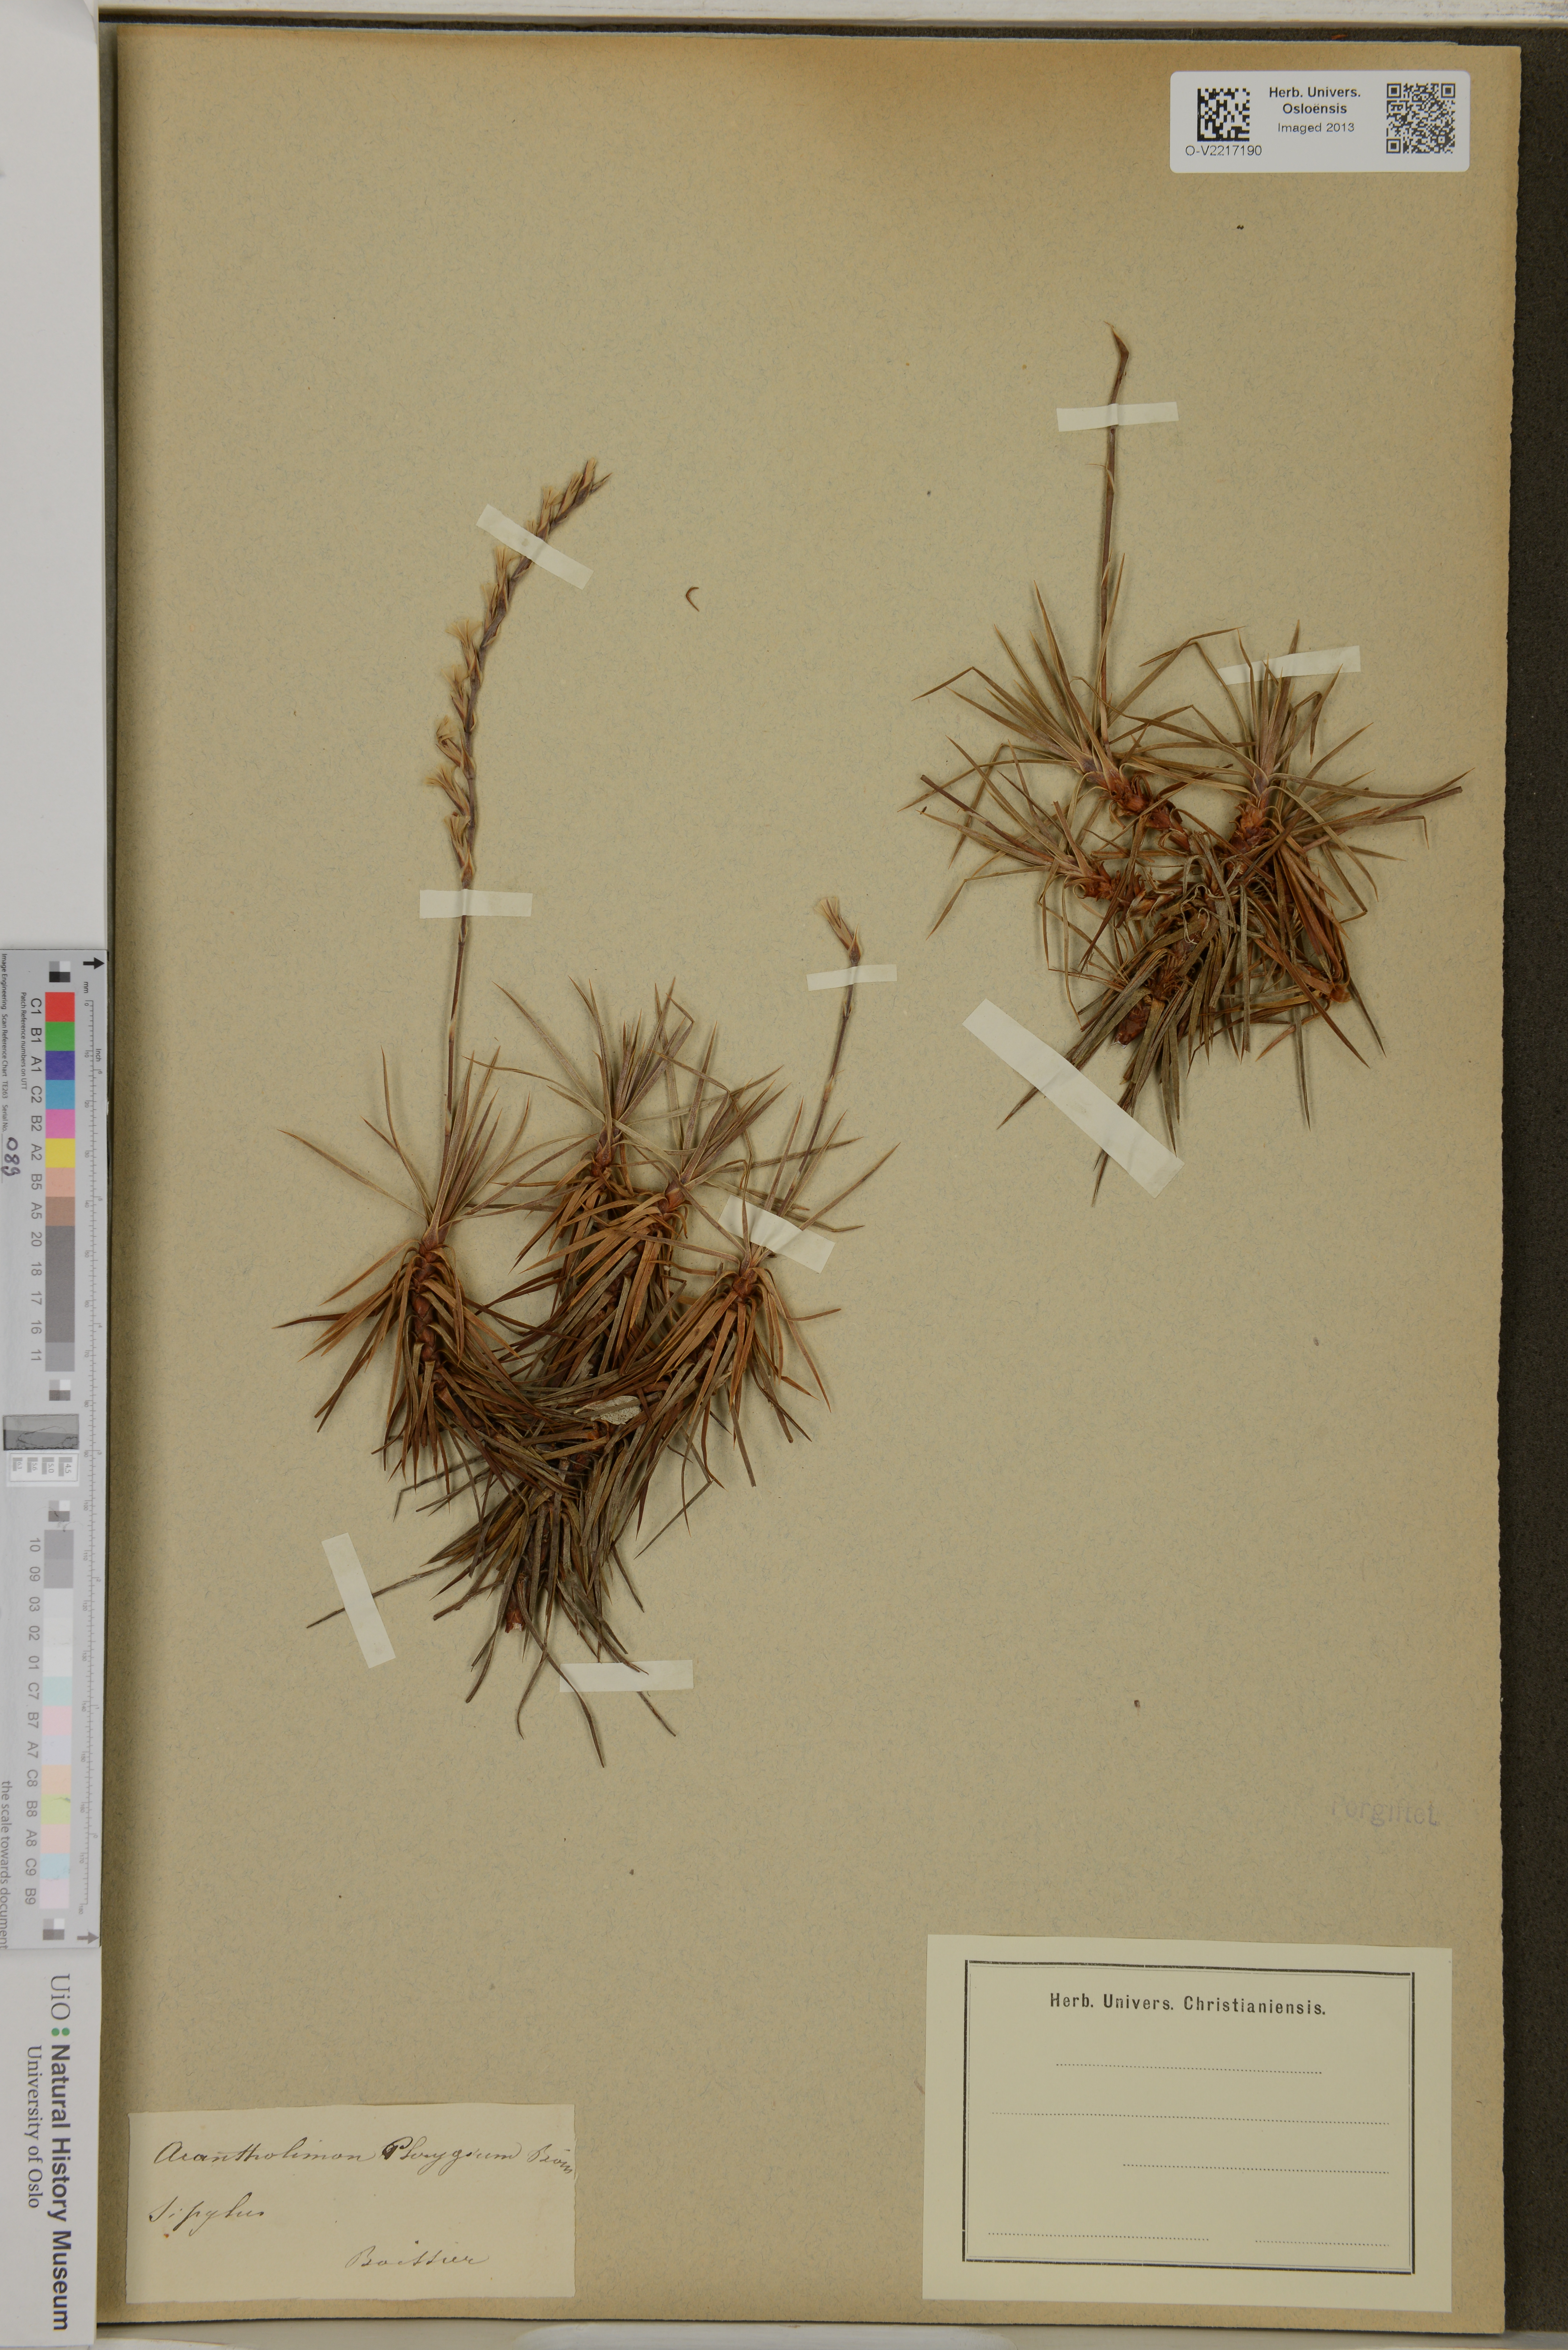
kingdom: Plantae
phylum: Tracheophyta
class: Magnoliopsida
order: Caryophyllales
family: Plumbaginaceae
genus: Acantholimon
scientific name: Acantholimon acerosum
